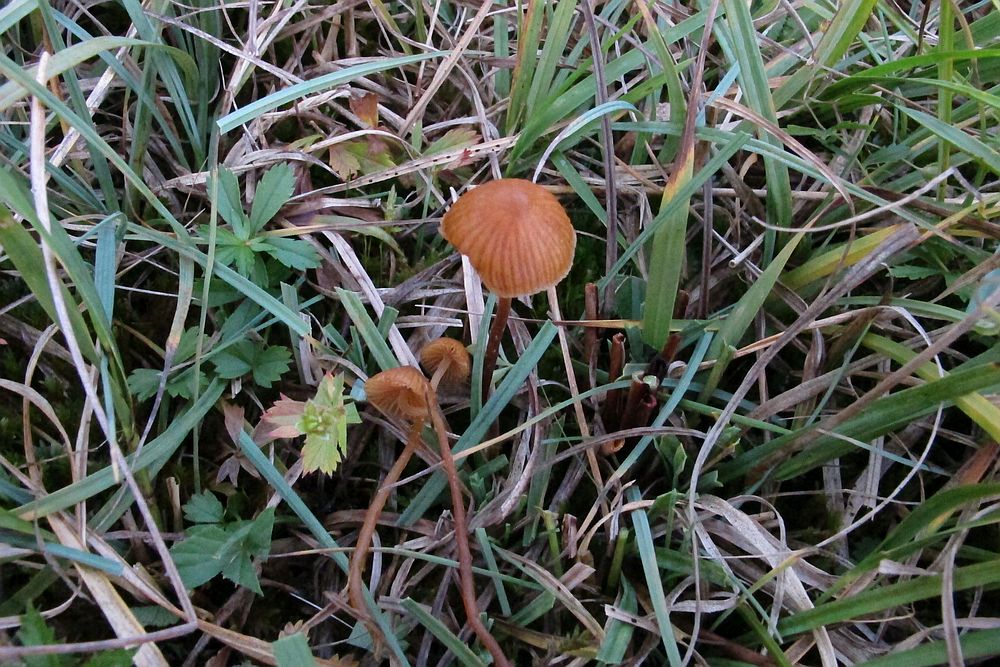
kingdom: Fungi
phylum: Basidiomycota
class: Agaricomycetes
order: Agaricales
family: Hymenogastraceae
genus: Galerina
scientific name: Galerina vittiformis
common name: Hairy leg bell
